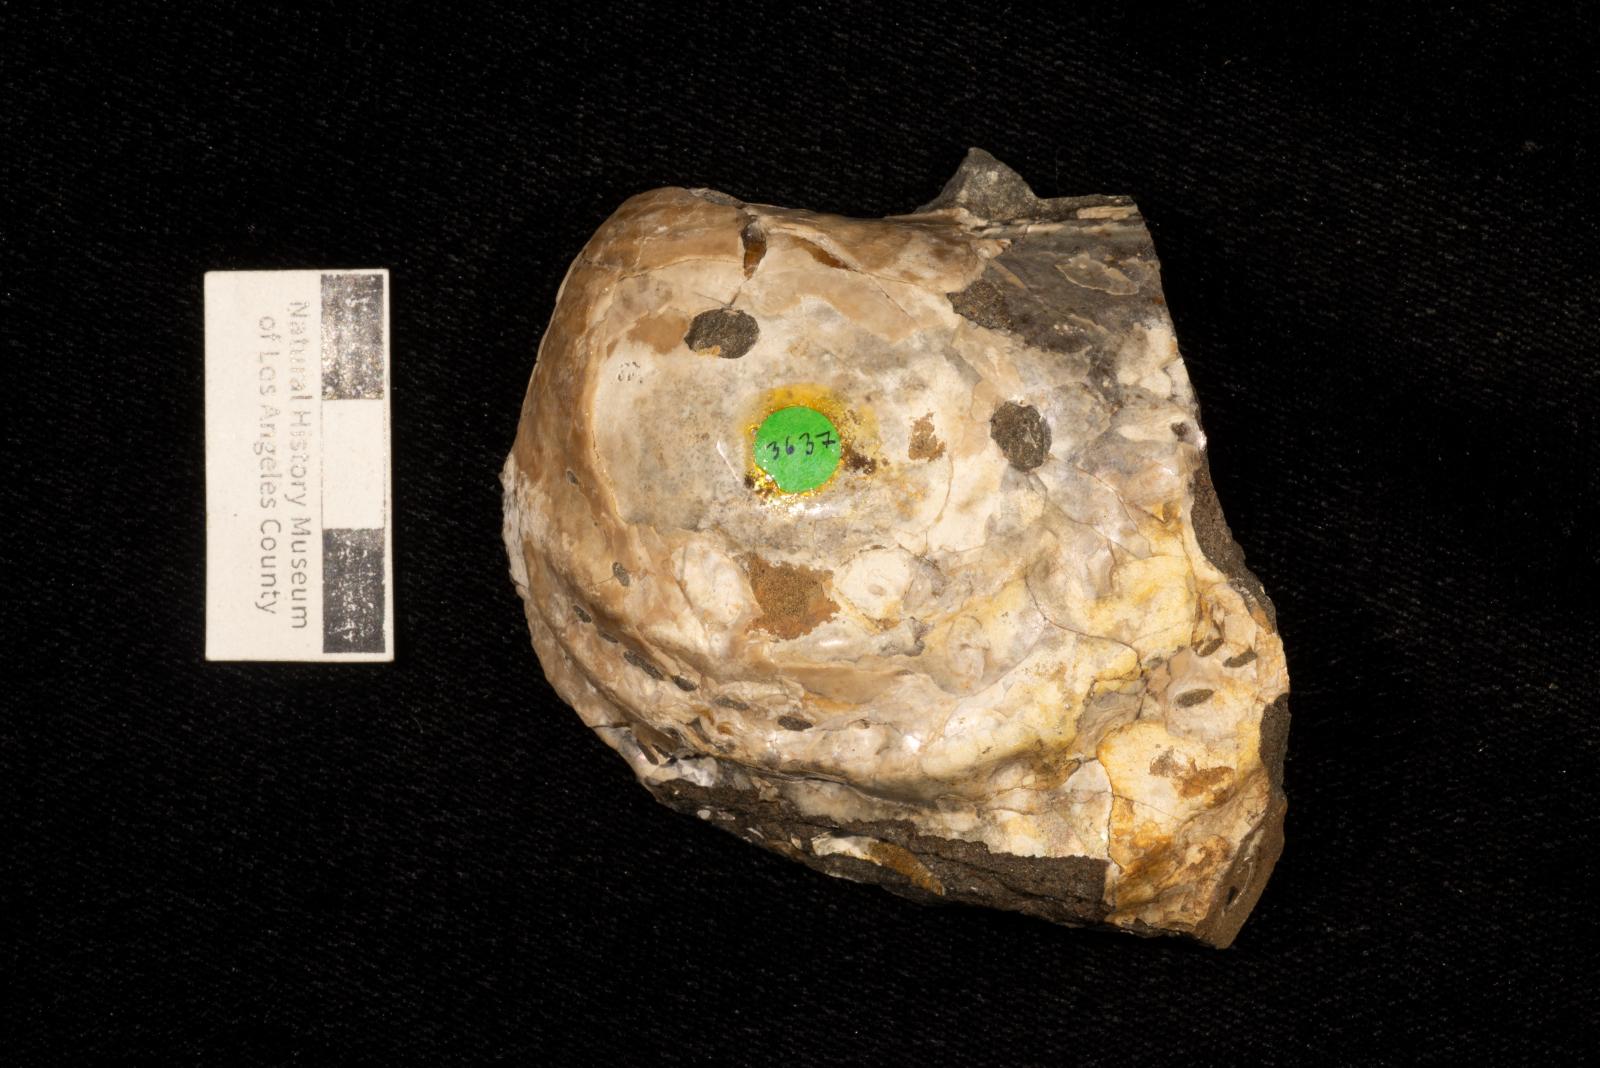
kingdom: Animalia
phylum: Mollusca
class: Bivalvia
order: Myalinida
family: Inoceramidae
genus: Cataceramus
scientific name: Cataceramus
